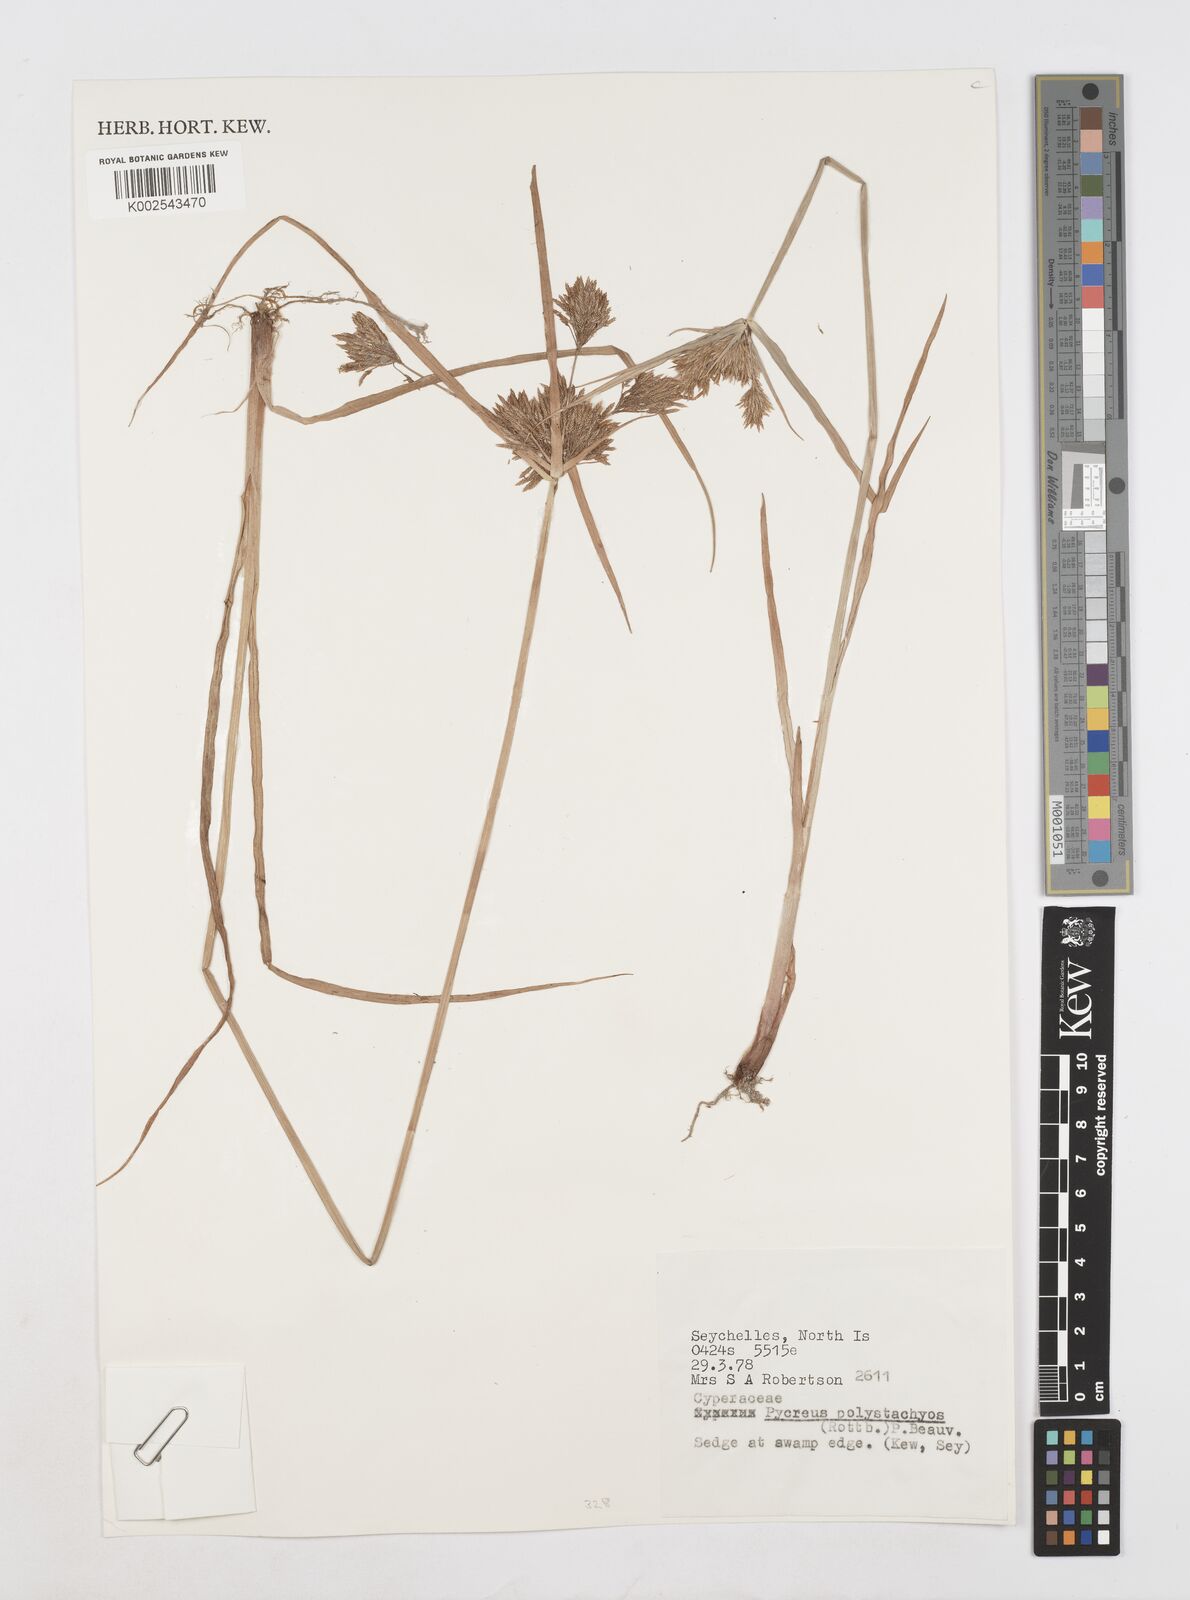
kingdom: Plantae
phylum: Tracheophyta
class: Liliopsida
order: Poales
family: Cyperaceae
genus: Cyperus
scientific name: Cyperus polystachyos
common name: Bunchy flat sedge
